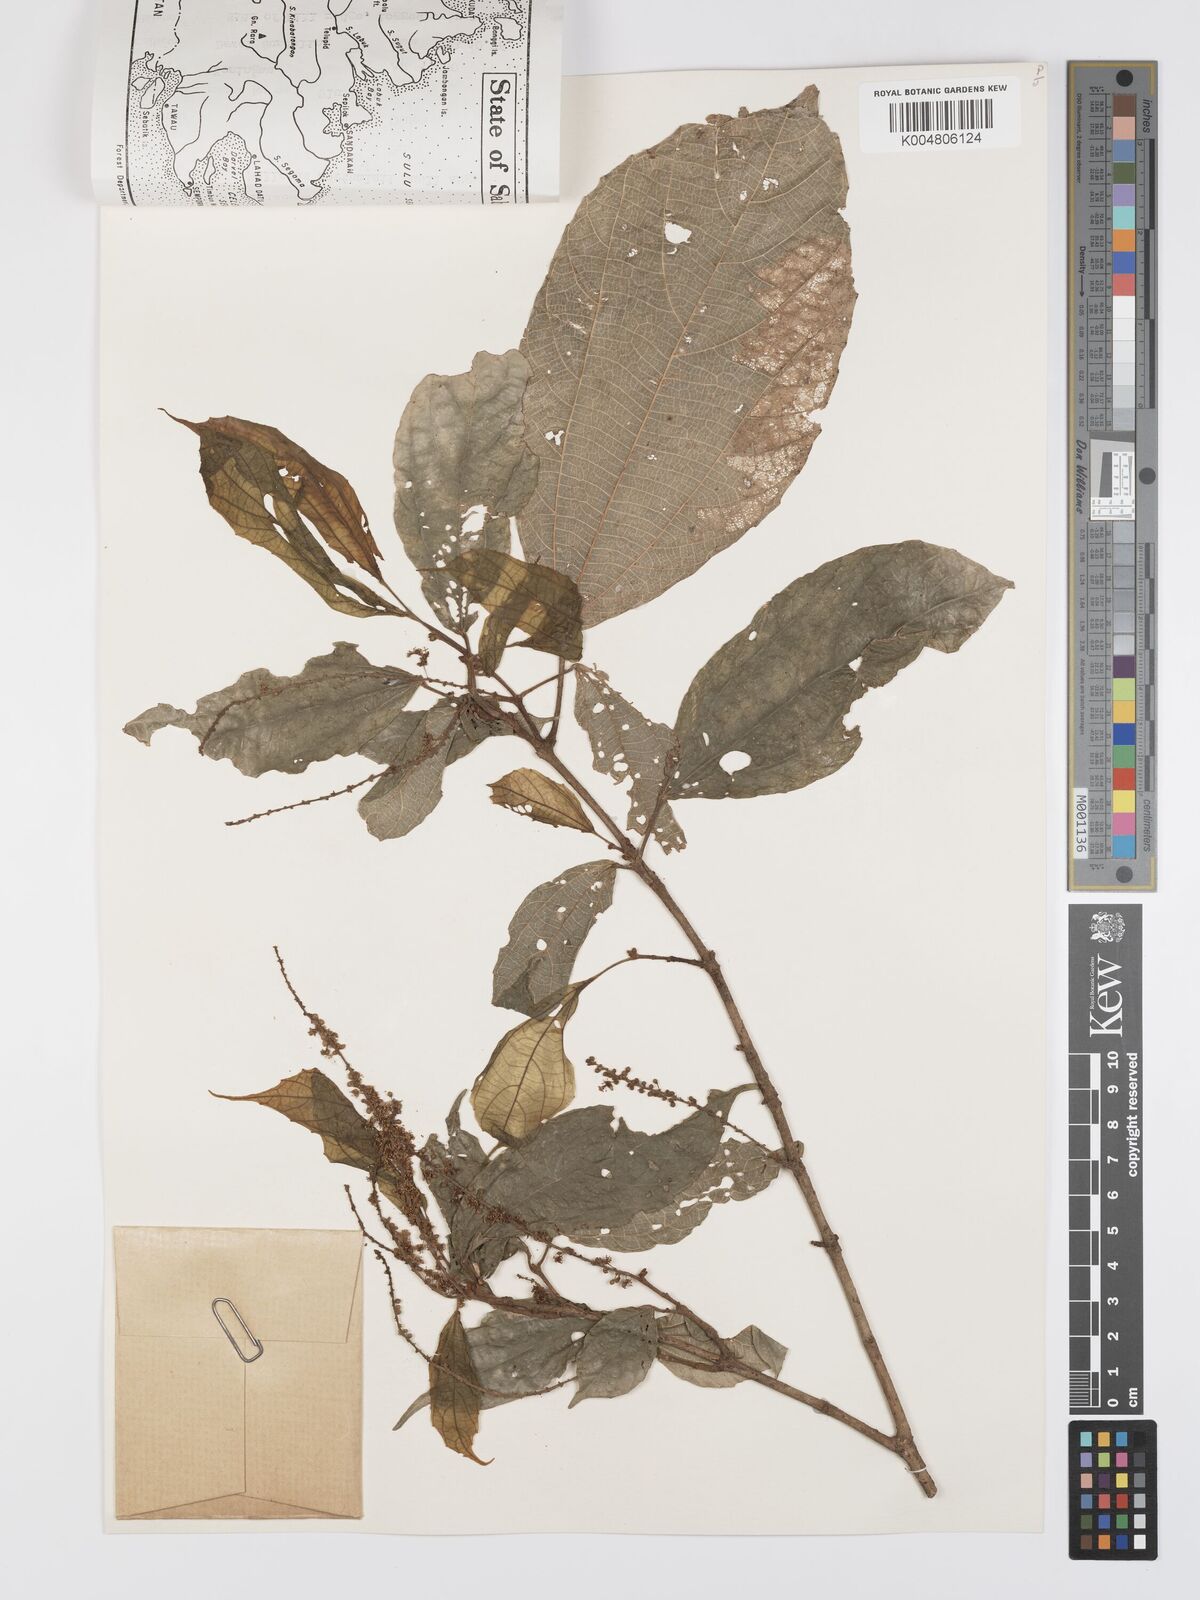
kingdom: Plantae
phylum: Tracheophyta
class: Magnoliopsida
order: Malpighiales
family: Euphorbiaceae
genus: Mallotus
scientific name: Mallotus korthalsii
